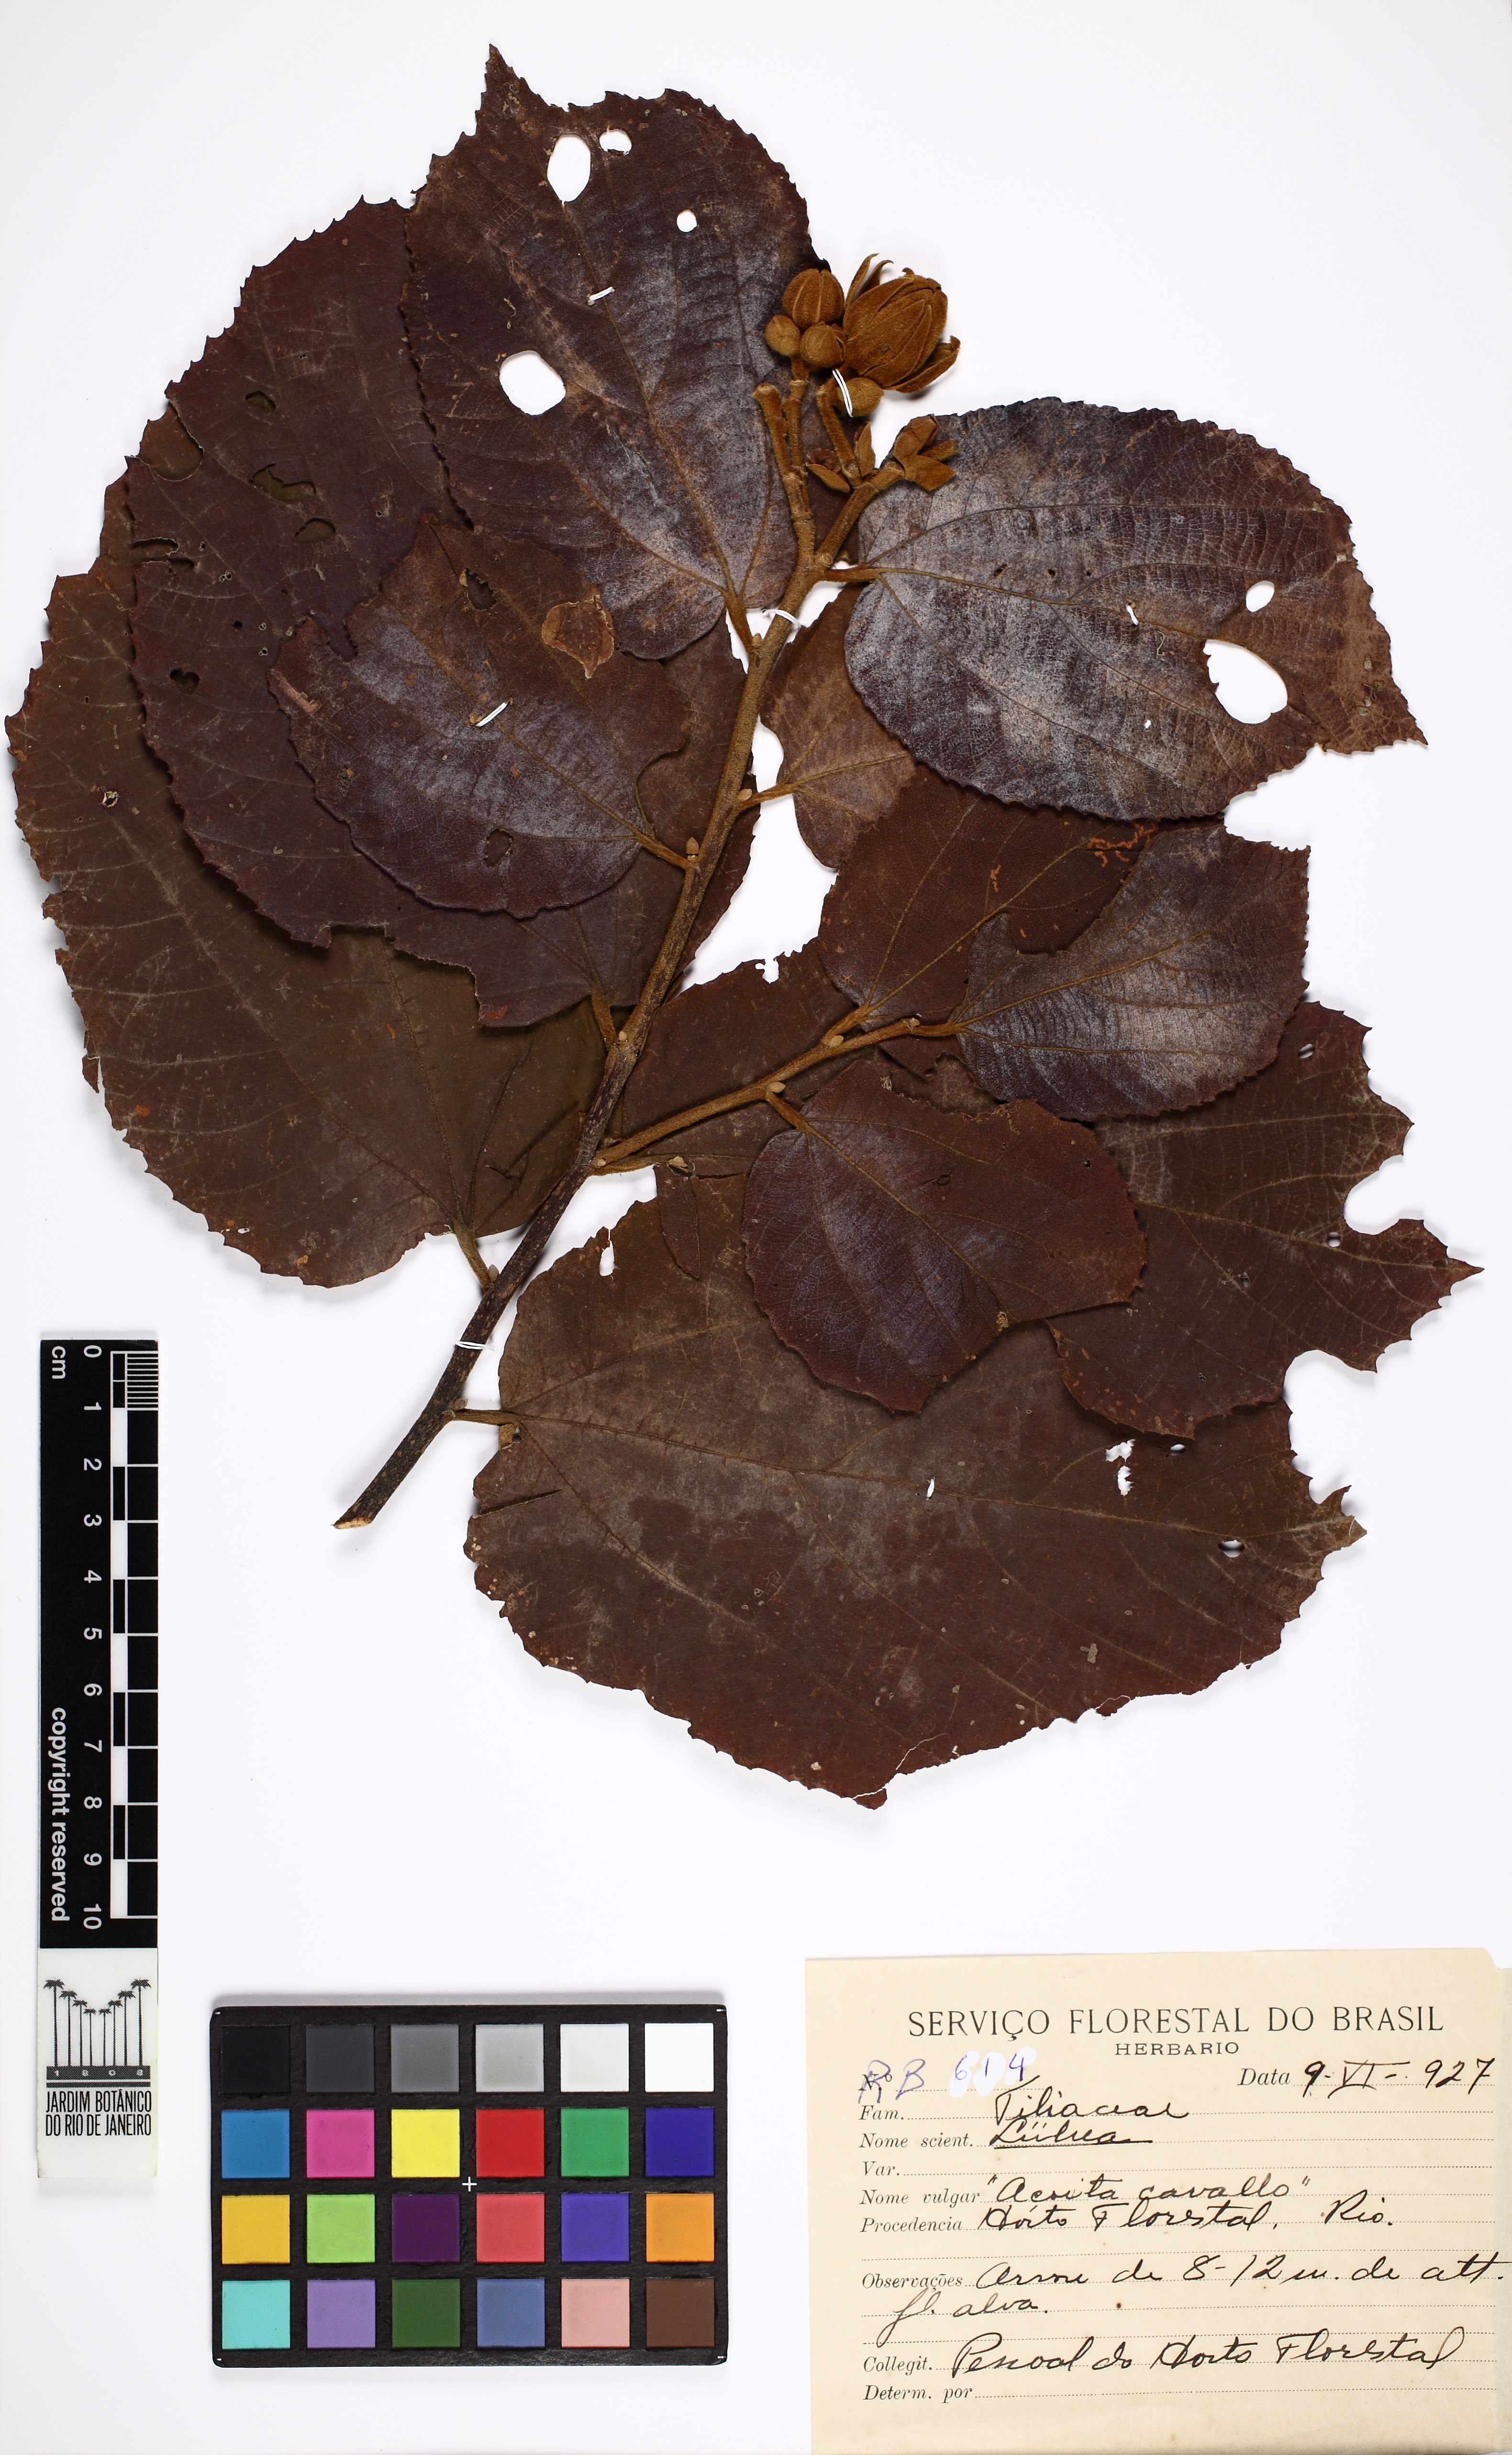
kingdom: Plantae
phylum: Tracheophyta
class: Magnoliopsida
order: Malvales
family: Malvaceae
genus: Luehea
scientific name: Luehea grandiflora
